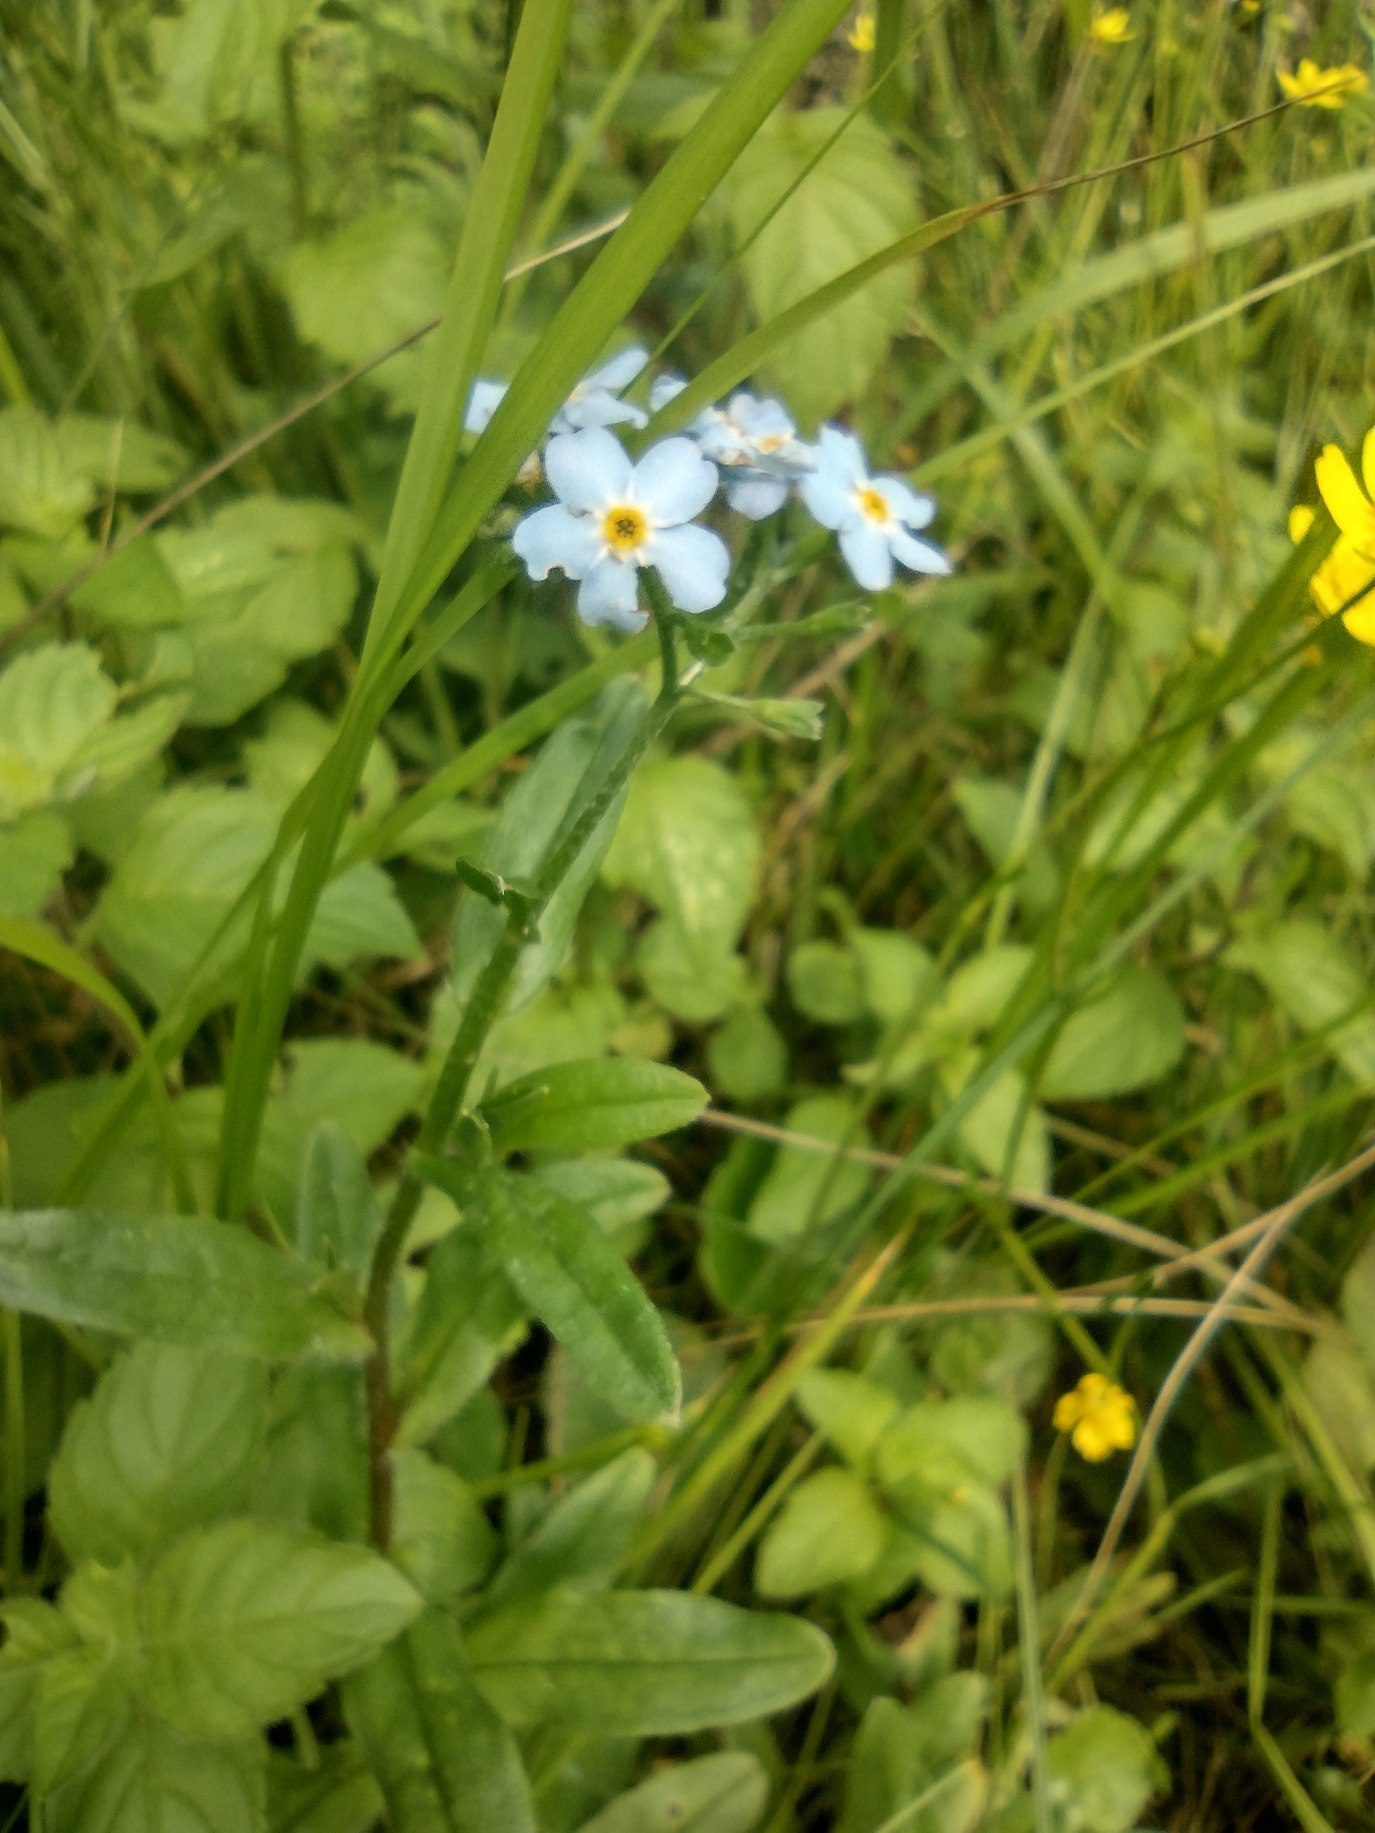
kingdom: Plantae
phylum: Tracheophyta
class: Magnoliopsida
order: Boraginales
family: Boraginaceae
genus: Myosotis
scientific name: Myosotis scorpioides
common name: Eng-forglemmigej
